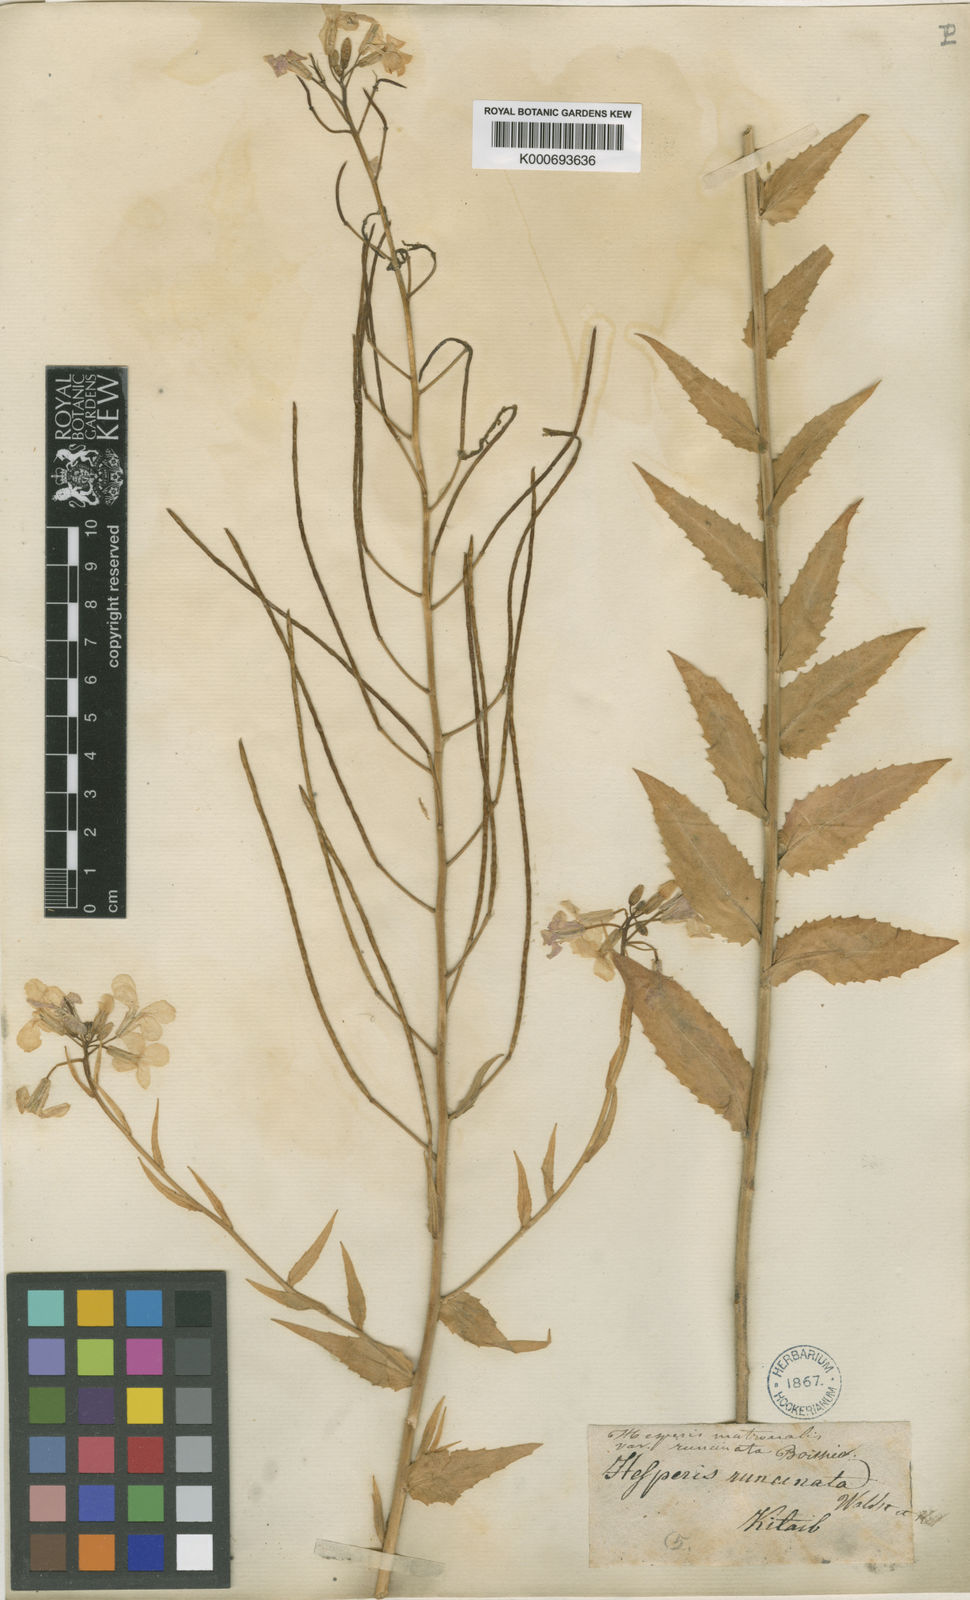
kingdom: Plantae
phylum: Tracheophyta
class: Magnoliopsida
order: Brassicales
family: Brassicaceae
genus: Hesperis
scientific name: Hesperis sylvestris
